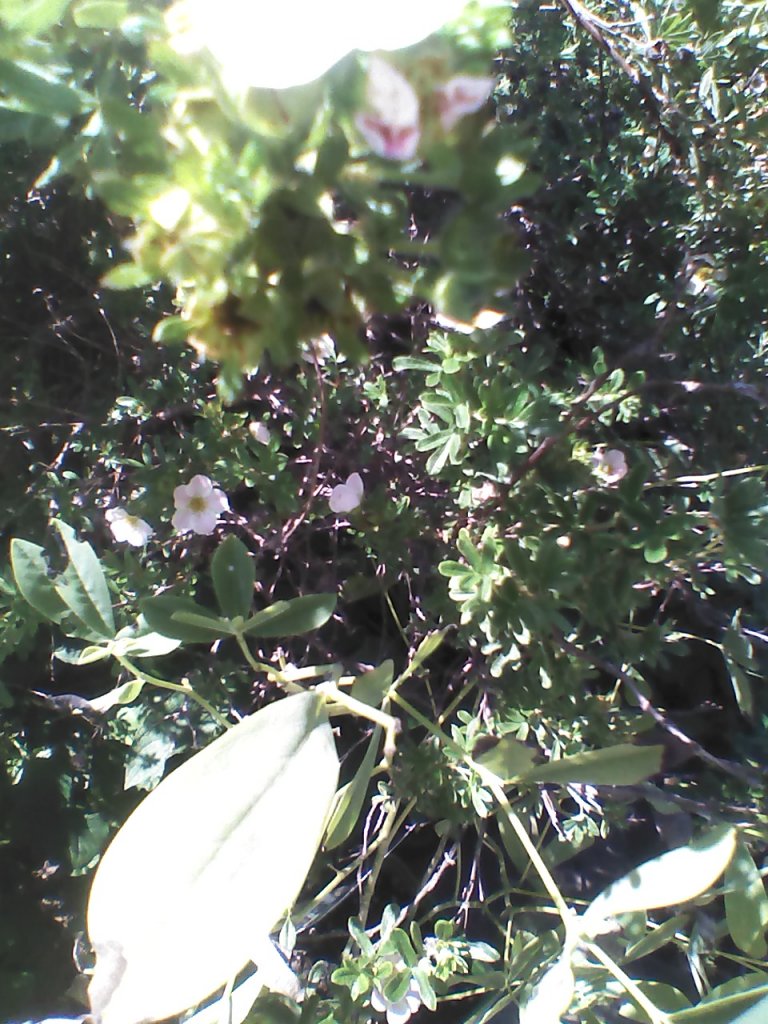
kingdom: Animalia
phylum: Arthropoda
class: Insecta
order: Lepidoptera
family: Hesperiidae
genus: Gesta
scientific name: Gesta
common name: Wild Indigo Duskywing
